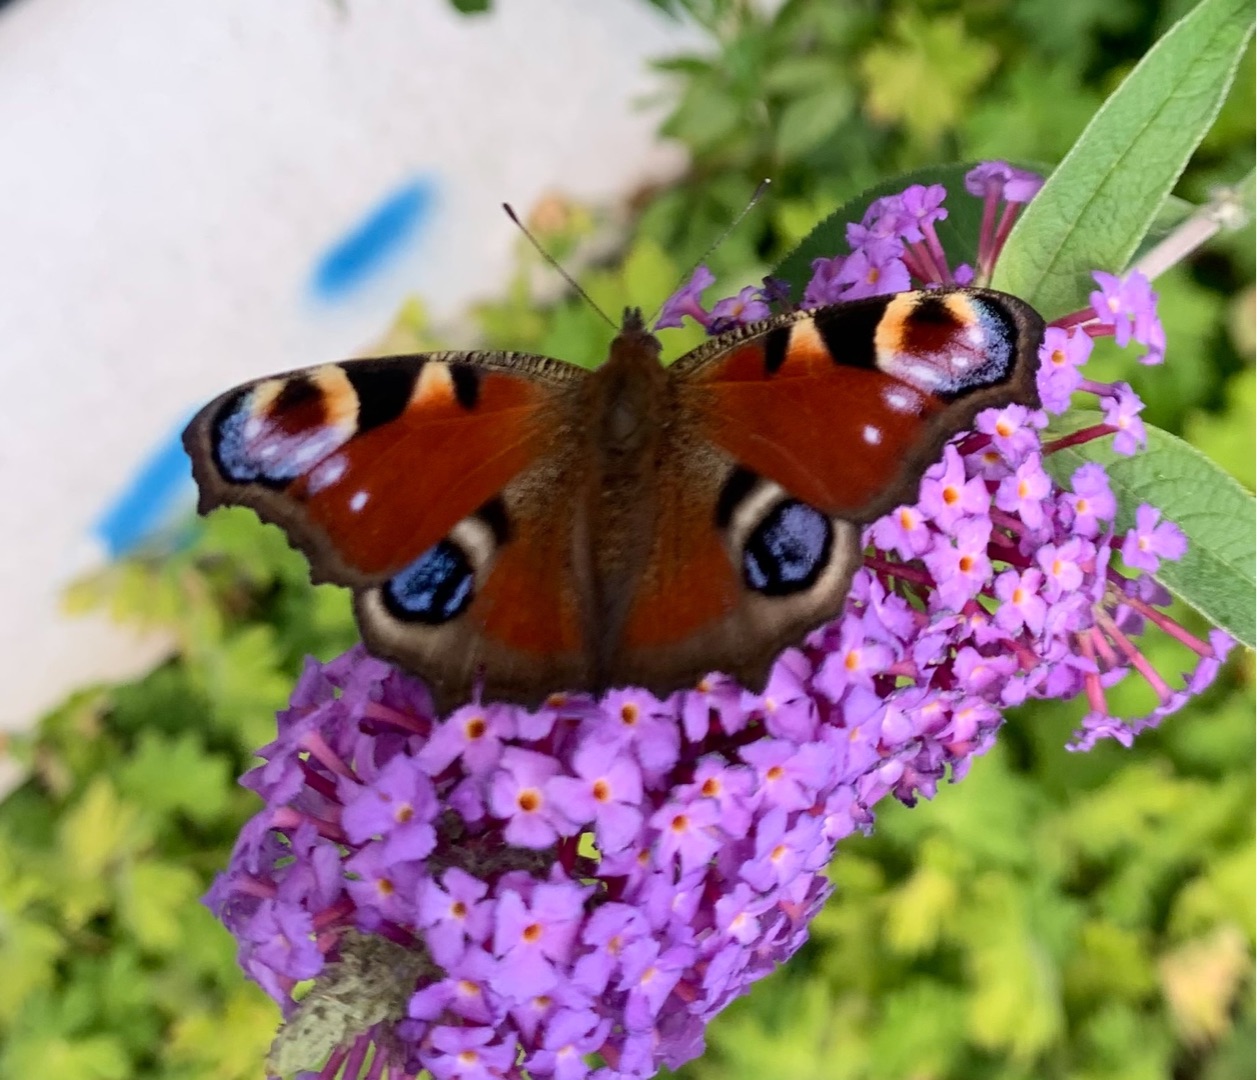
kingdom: Animalia
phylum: Arthropoda
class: Insecta
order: Lepidoptera
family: Nymphalidae
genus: Aglais
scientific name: Aglais io
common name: Dagpåfugleøje
